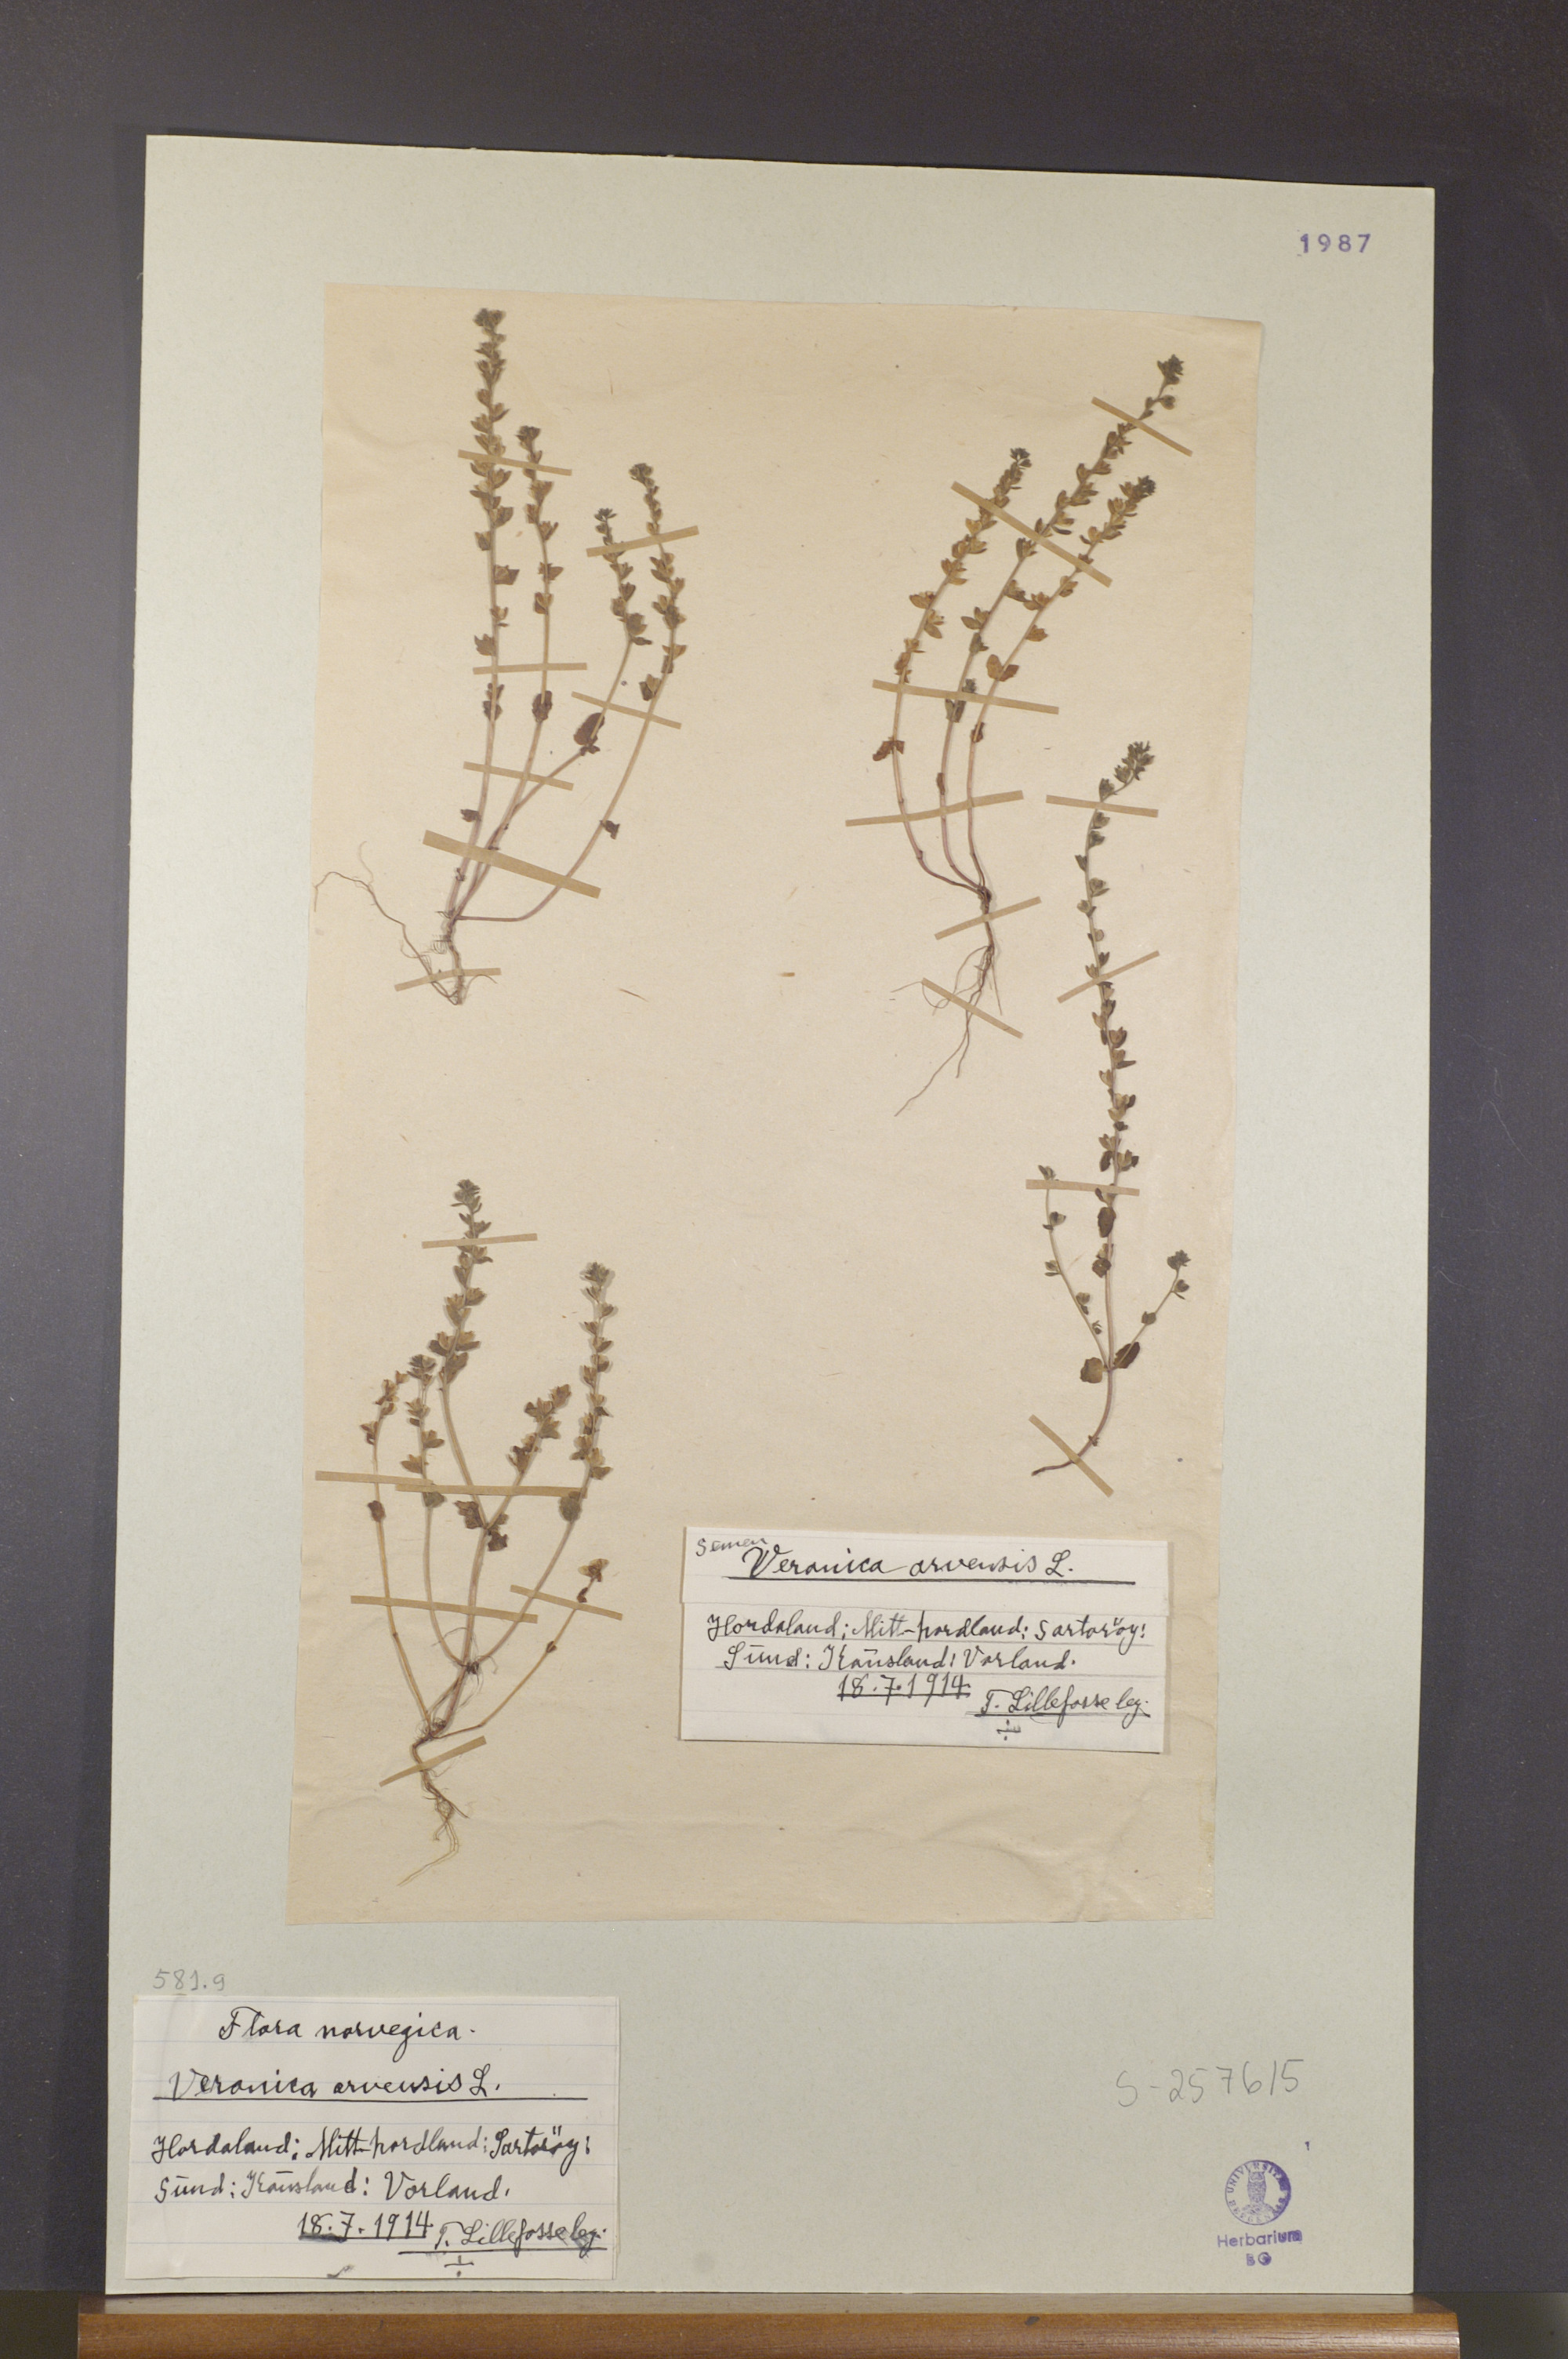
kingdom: Plantae
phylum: Tracheophyta
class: Magnoliopsida
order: Lamiales
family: Plantaginaceae
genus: Veronica
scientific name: Veronica arvensis
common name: Corn speedwell
